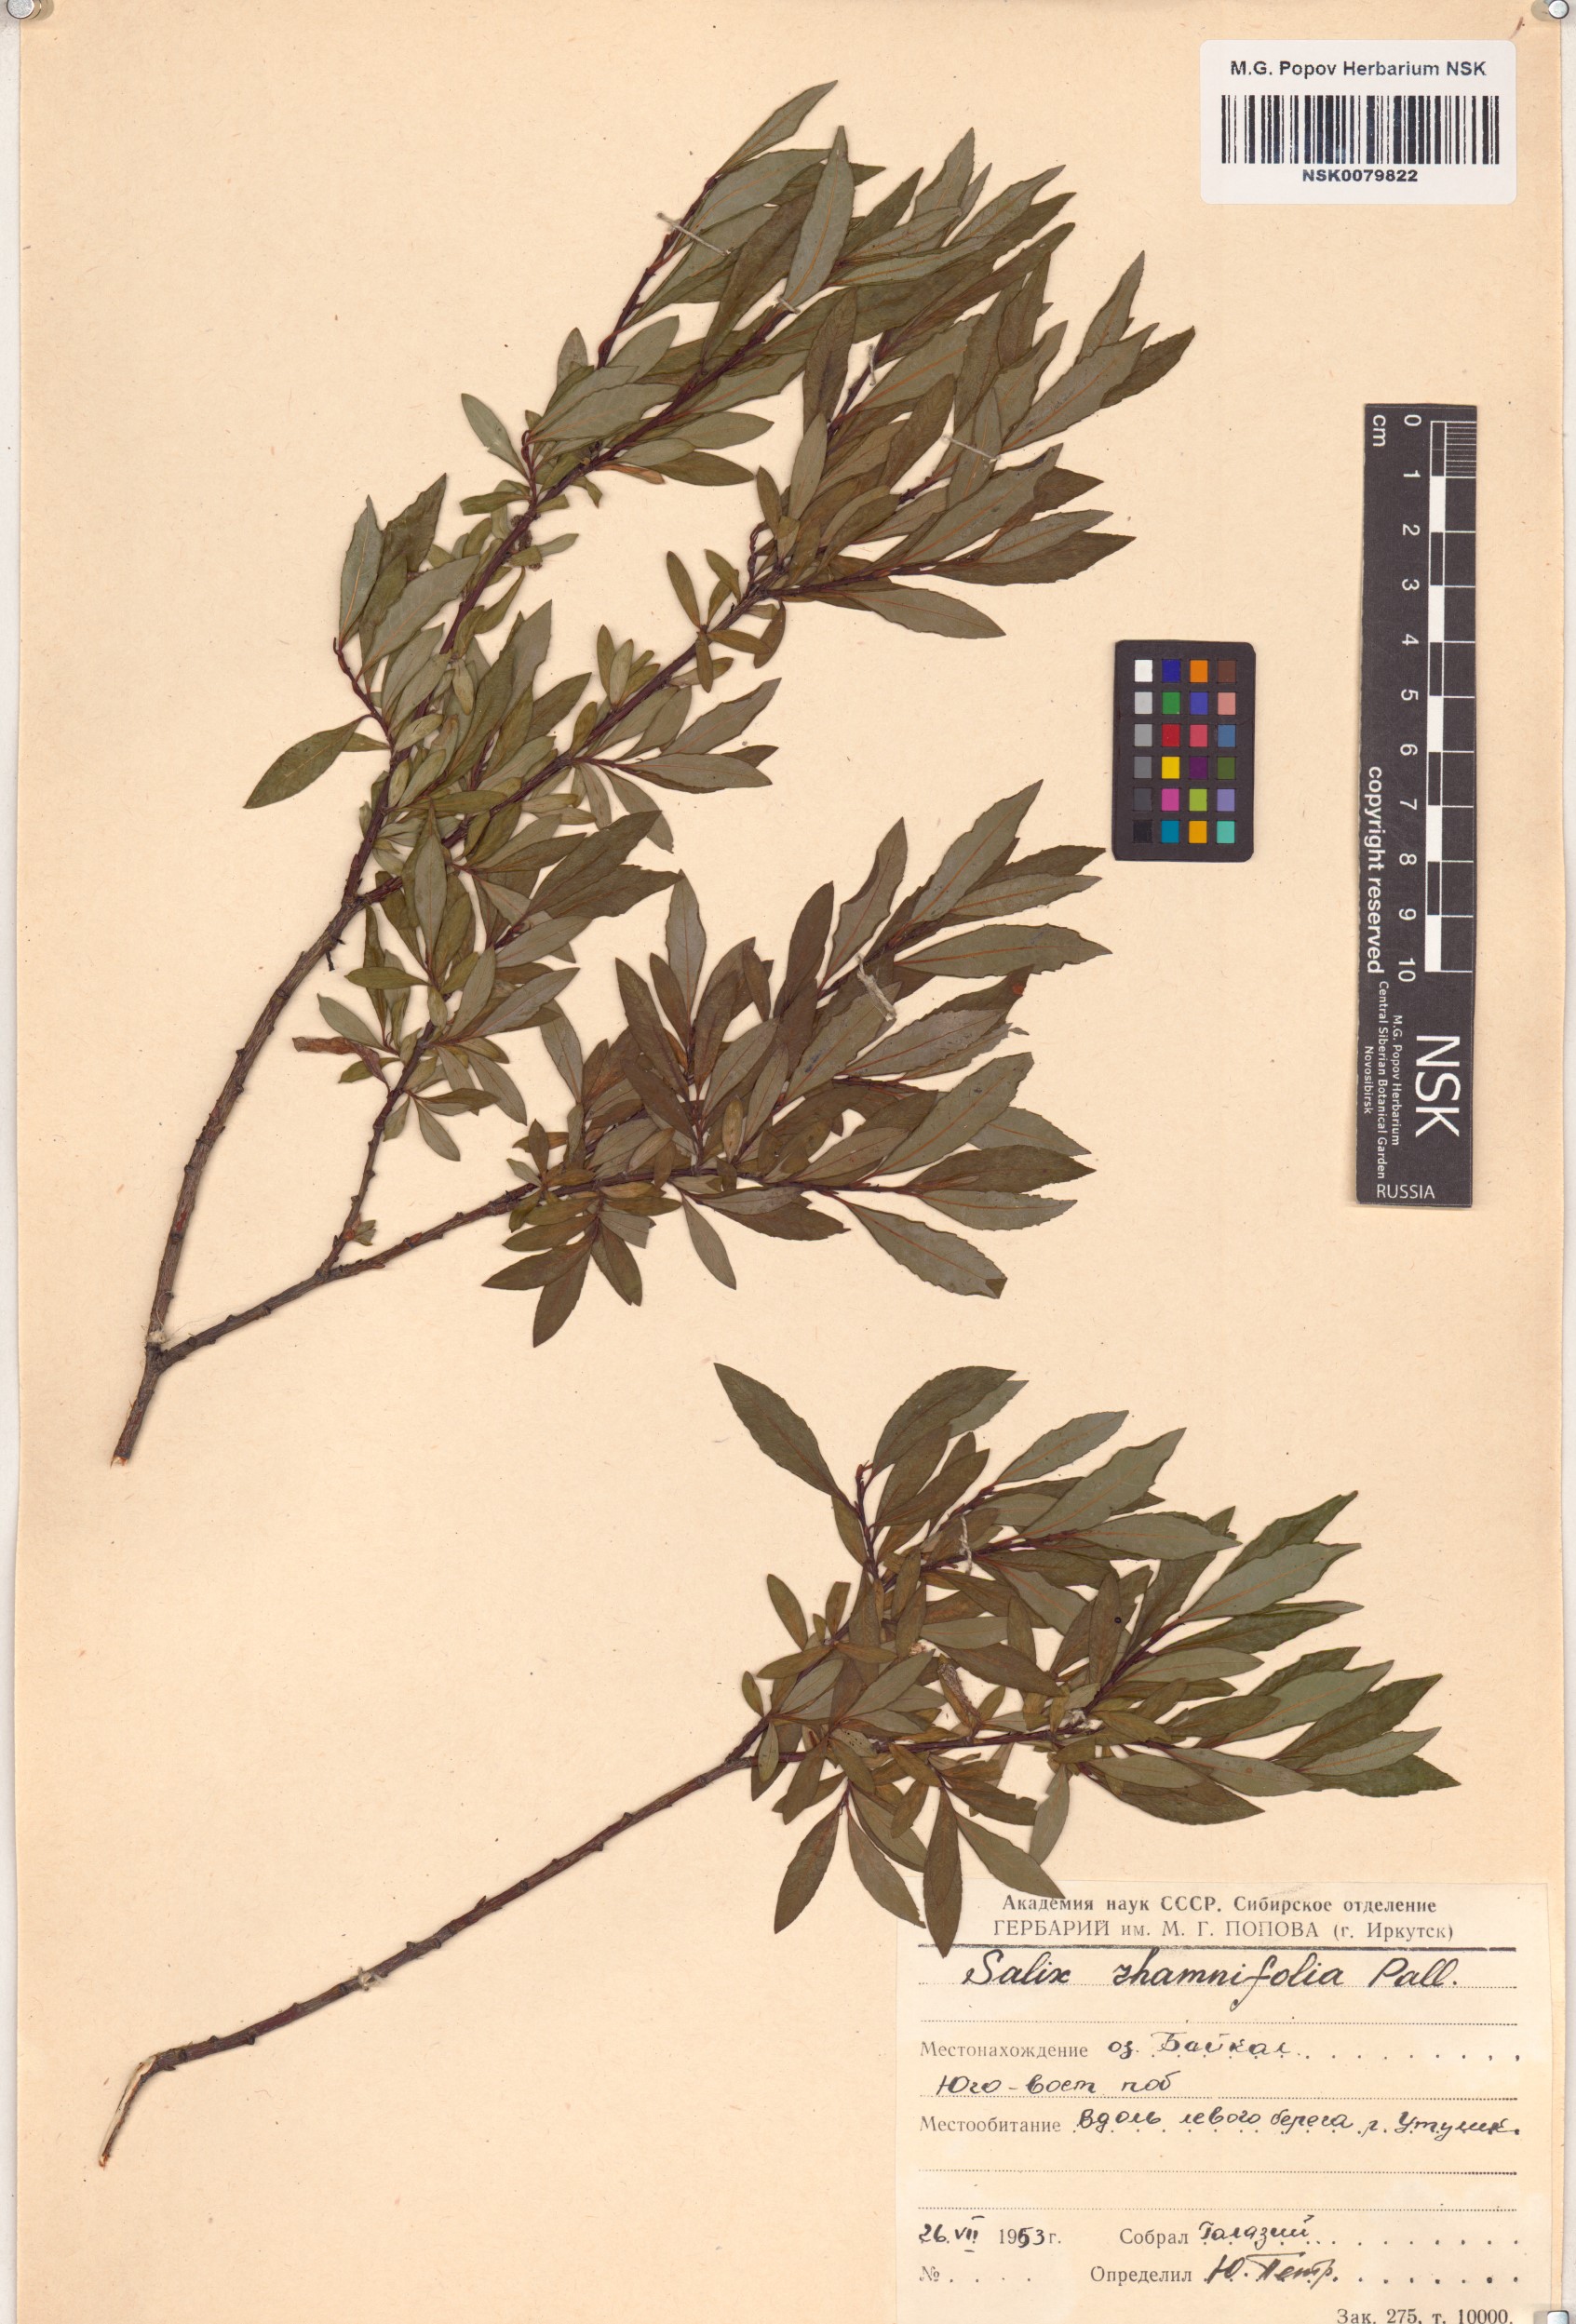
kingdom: Plantae
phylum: Tracheophyta
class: Magnoliopsida
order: Malpighiales
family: Salicaceae
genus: Salix
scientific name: Salix rhamnifolia
